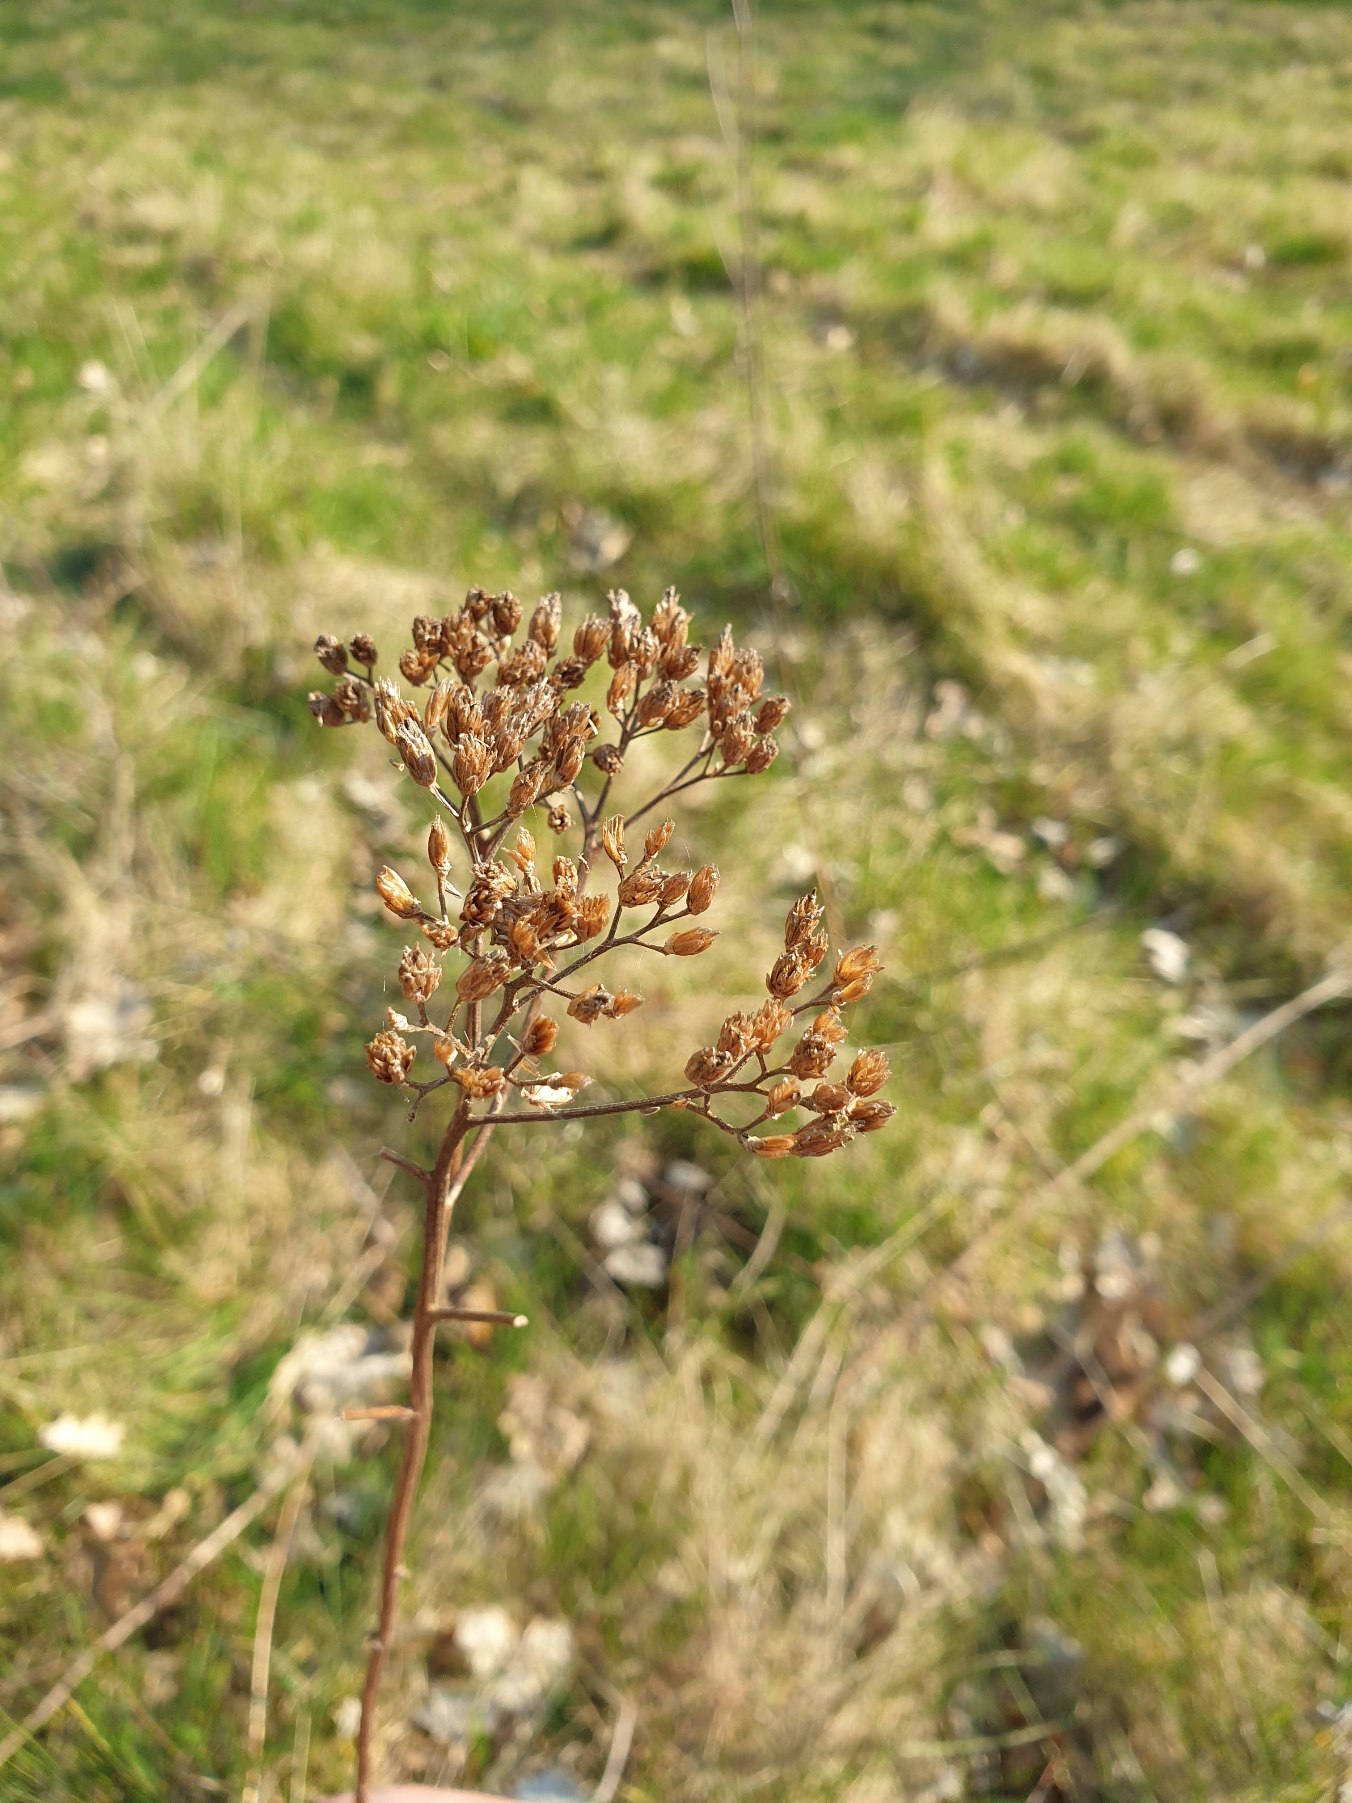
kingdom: Plantae
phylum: Tracheophyta
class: Magnoliopsida
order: Asterales
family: Asteraceae
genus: Achillea
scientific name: Achillea millefolium
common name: Almindelig røllike
